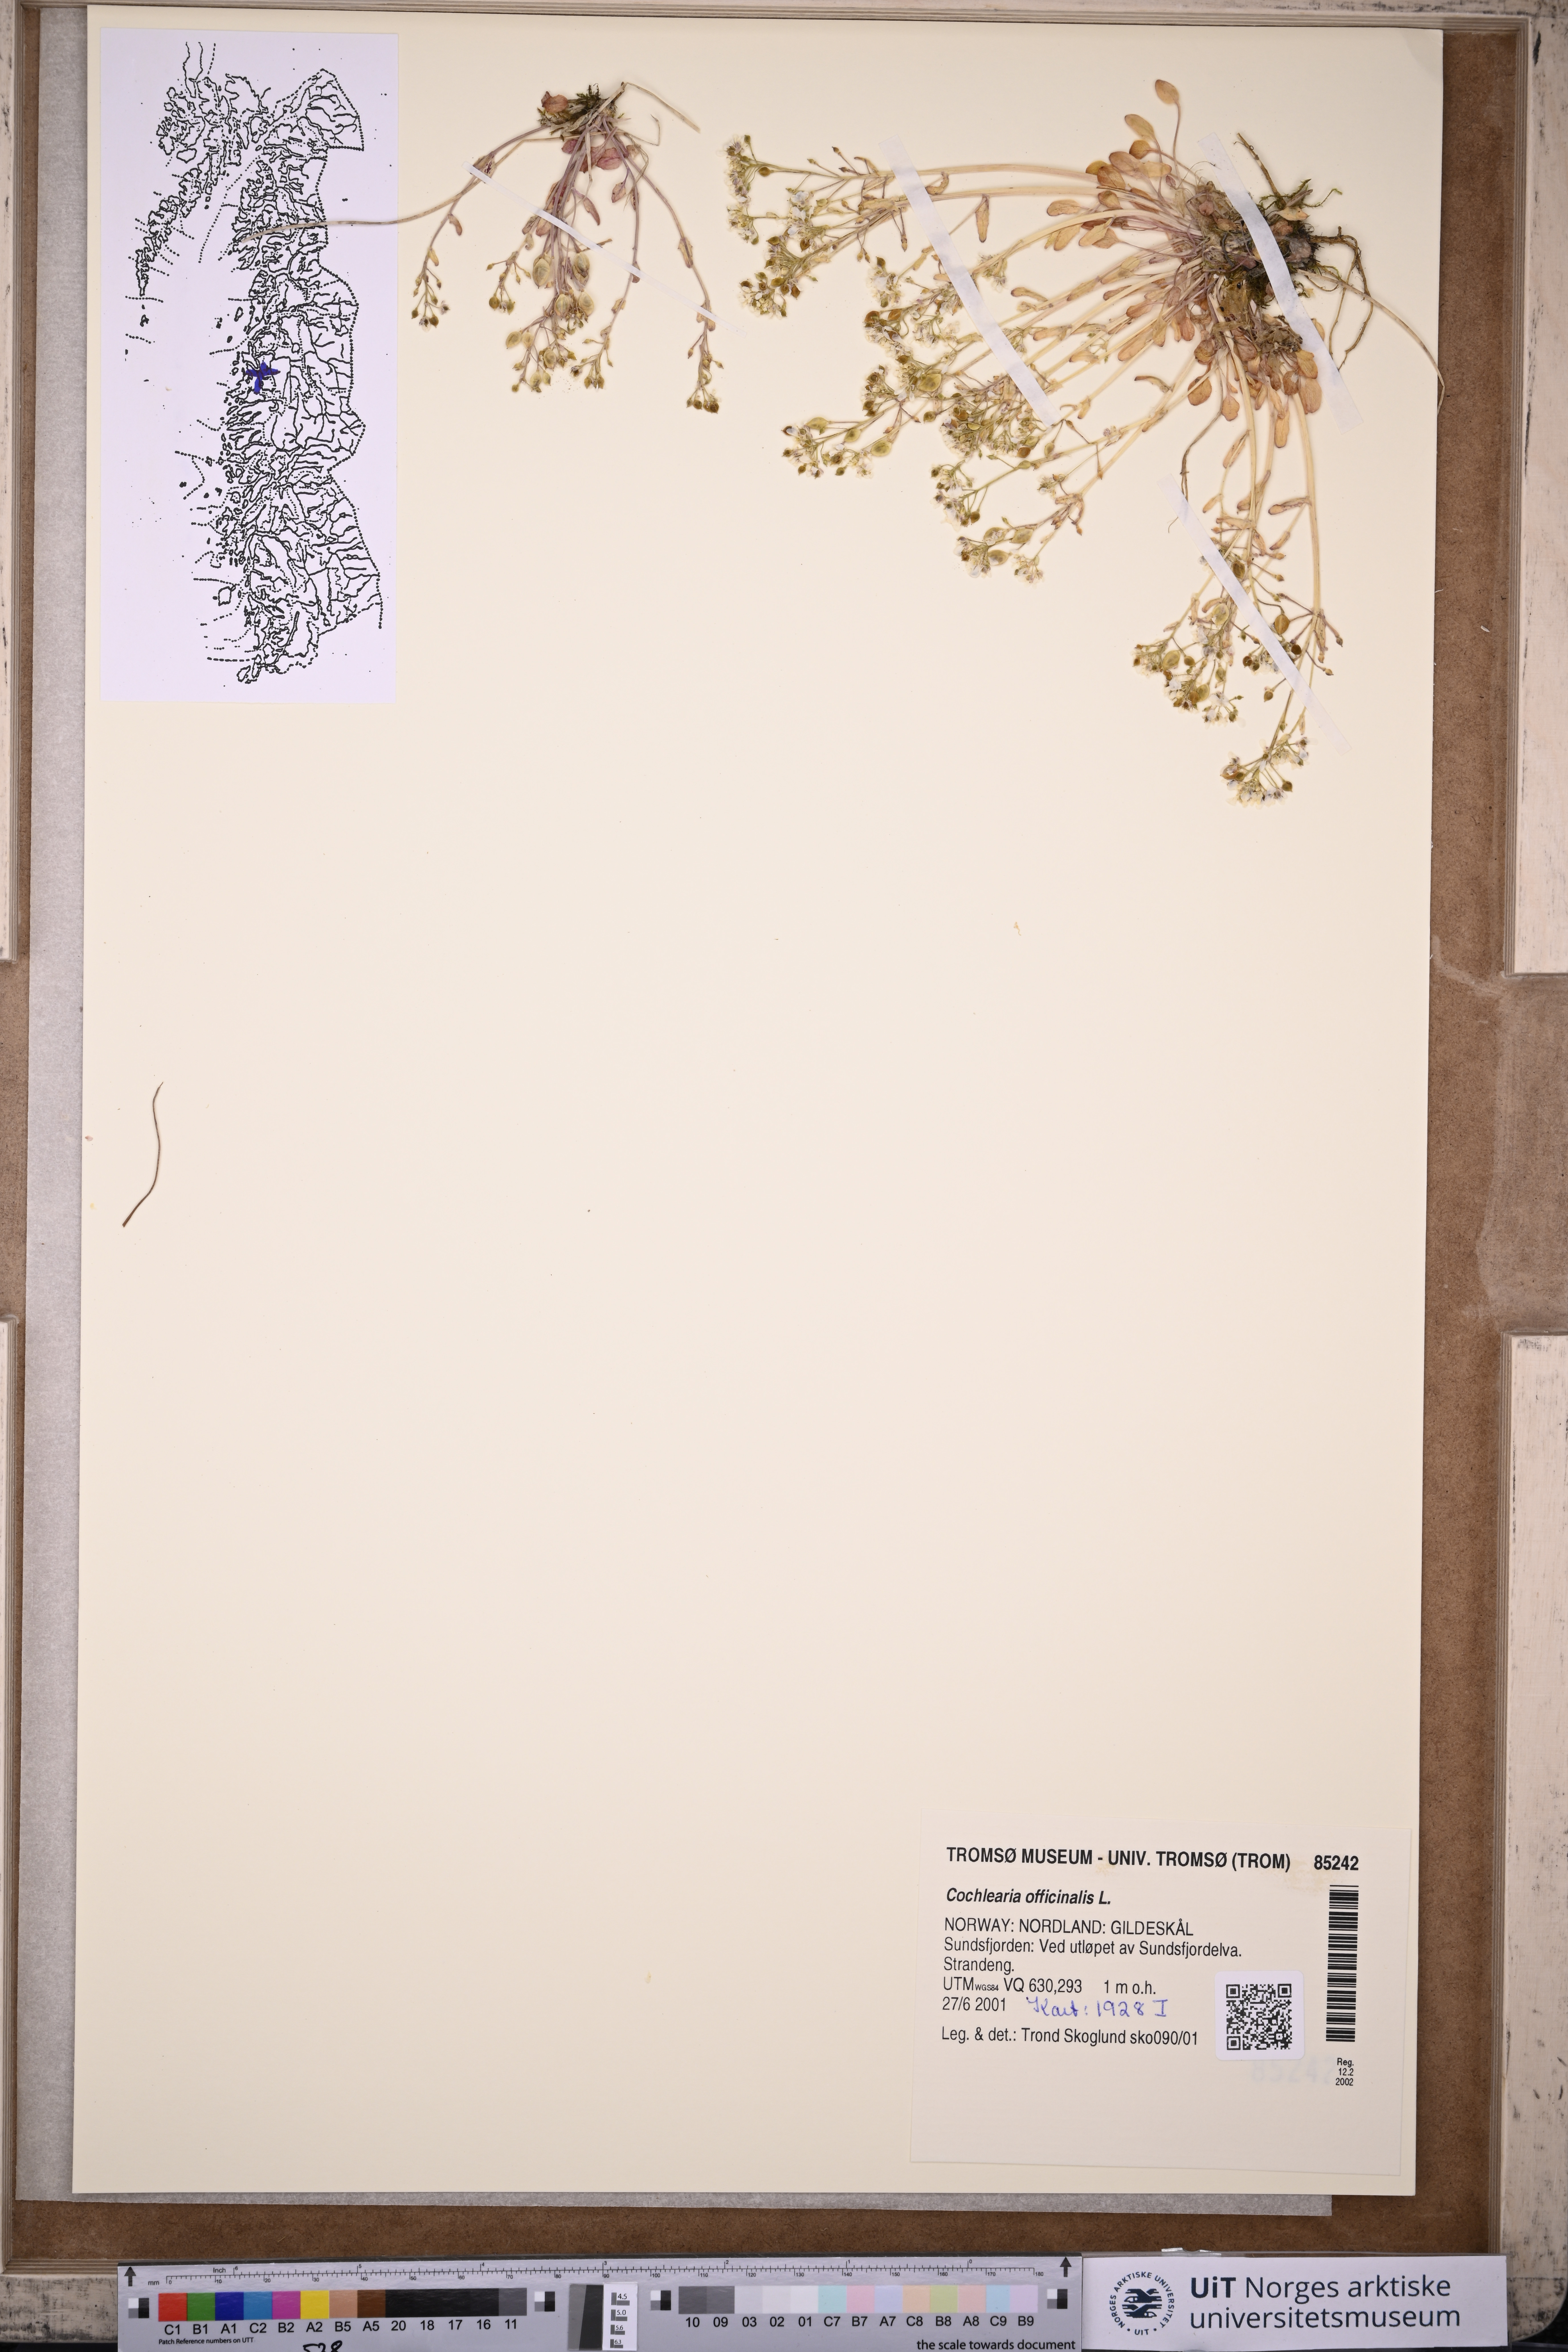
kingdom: Plantae
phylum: Tracheophyta
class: Magnoliopsida
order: Brassicales
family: Brassicaceae
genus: Cochlearia
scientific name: Cochlearia officinalis
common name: Scurvy-grass
